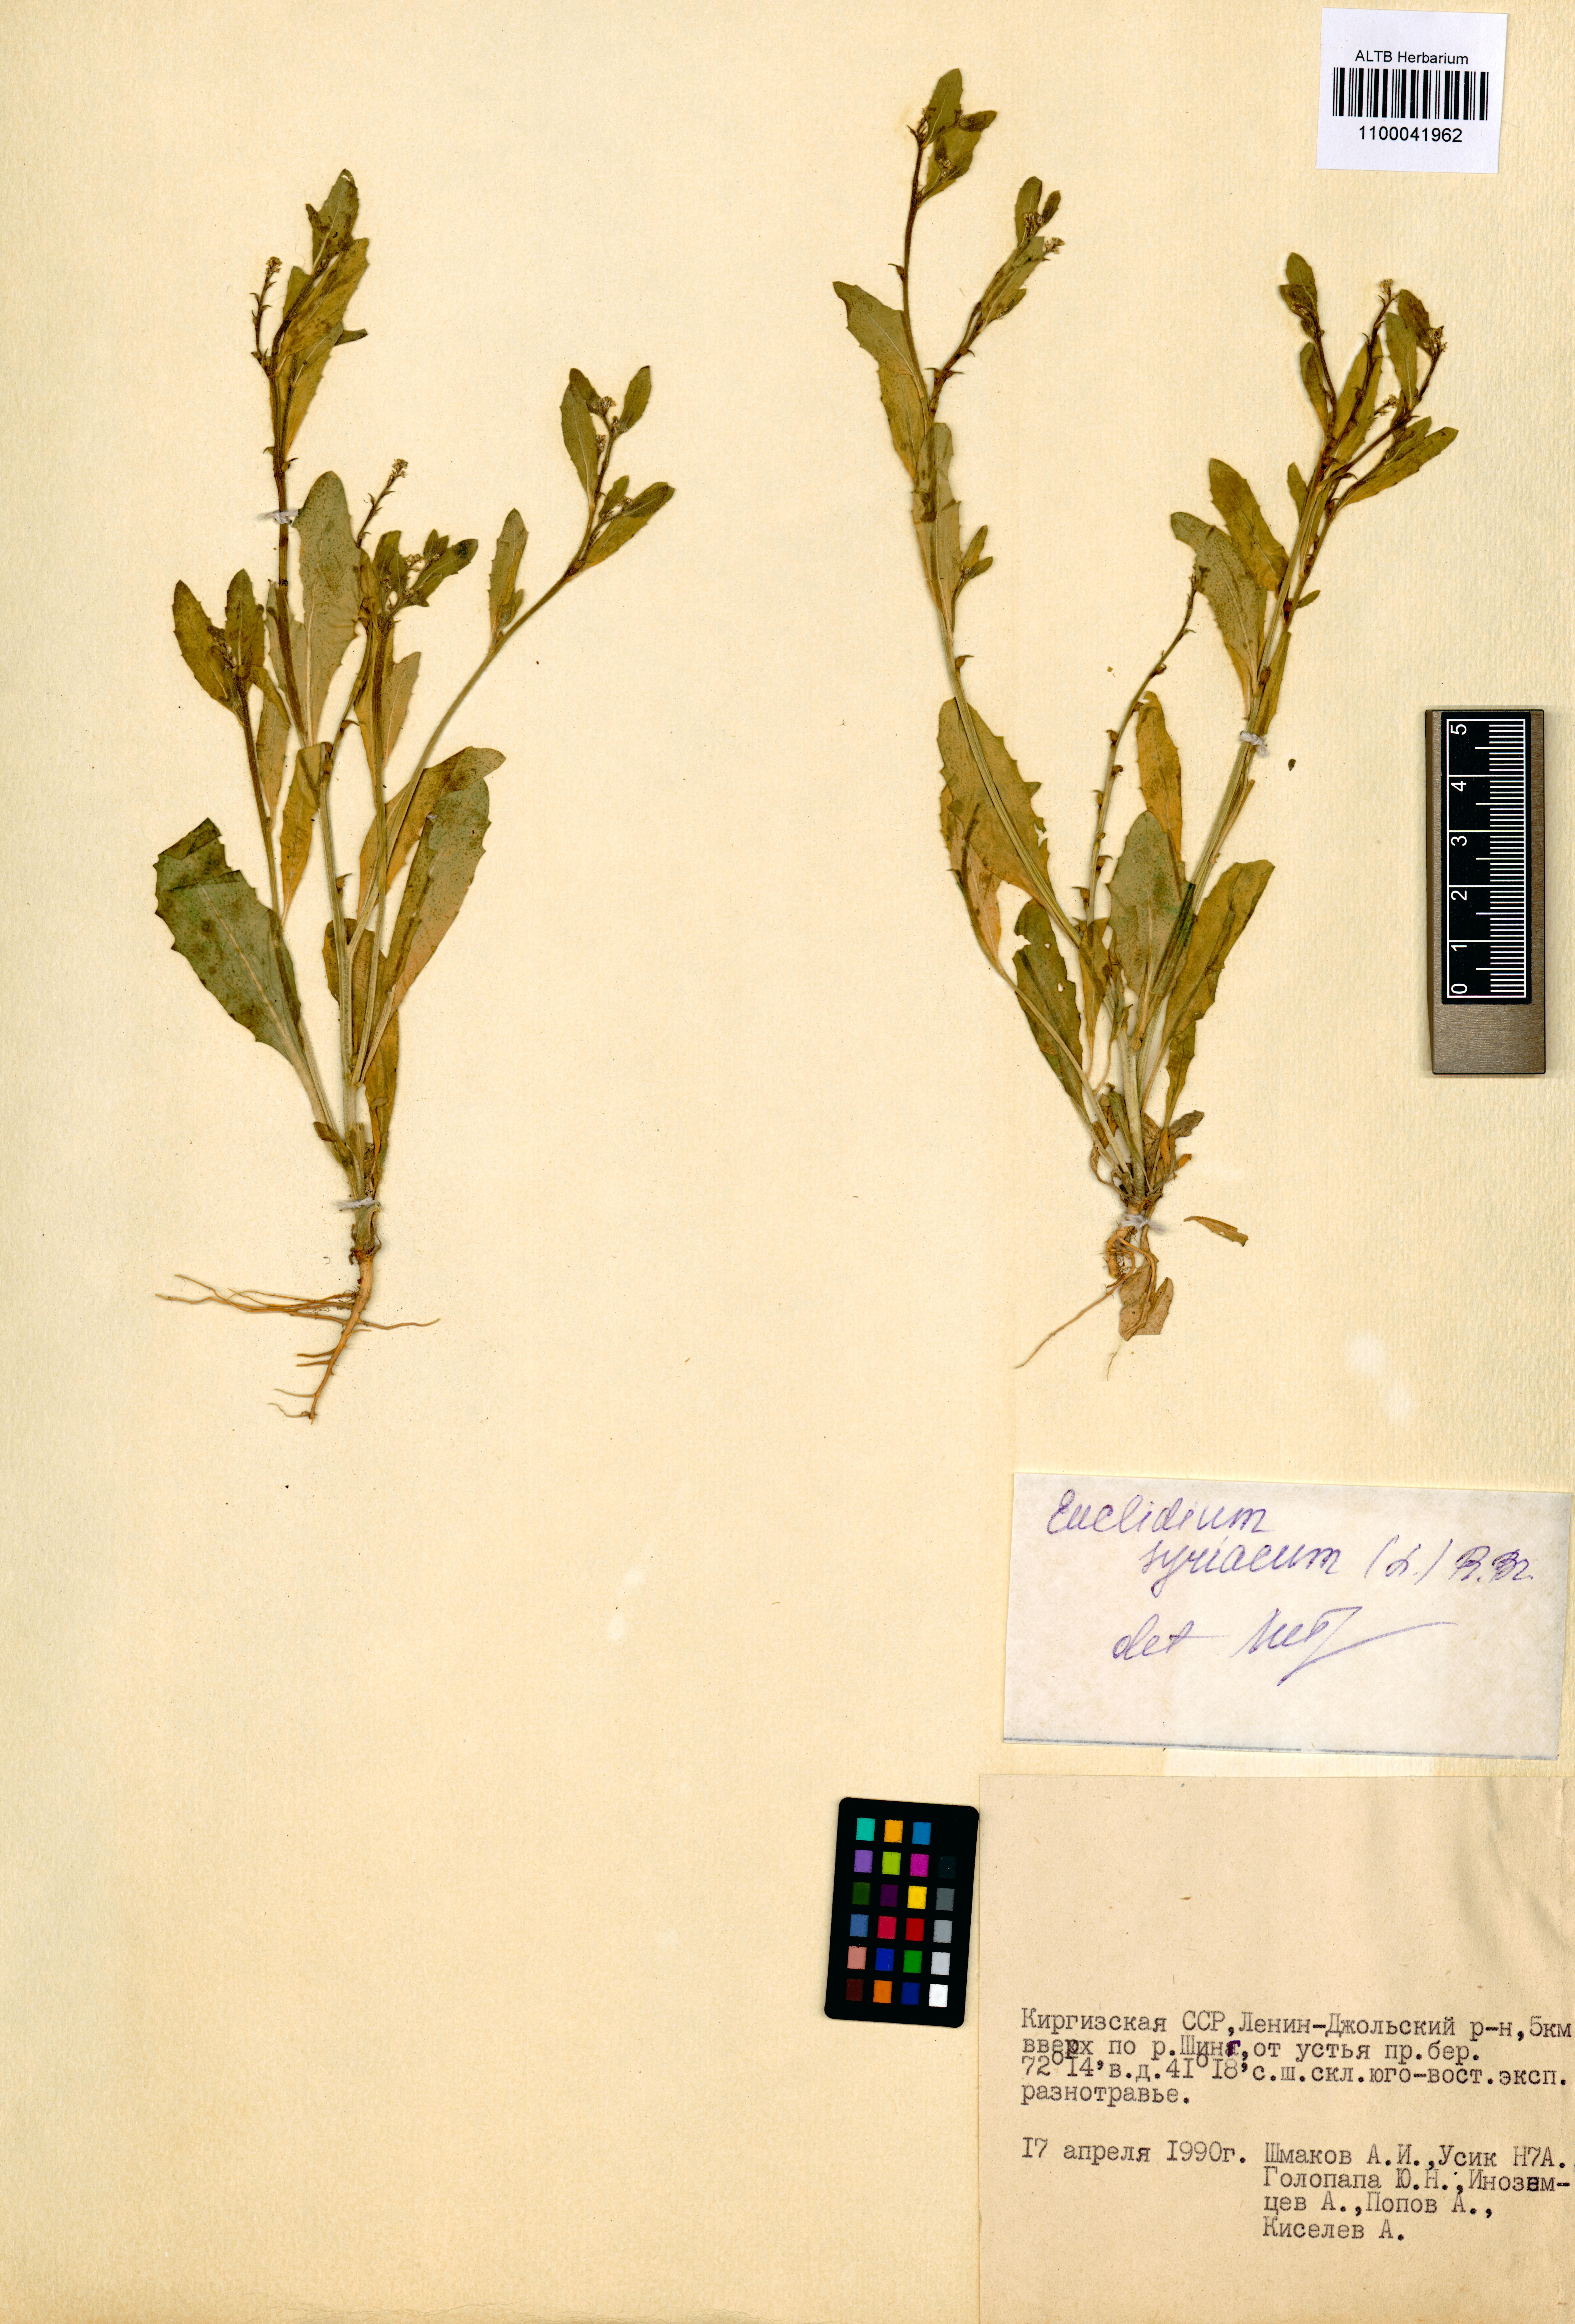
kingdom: Plantae
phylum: Tracheophyta
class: Magnoliopsida
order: Brassicales
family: Brassicaceae
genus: Euclidium
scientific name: Euclidium syriacum
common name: Syrian mustard
